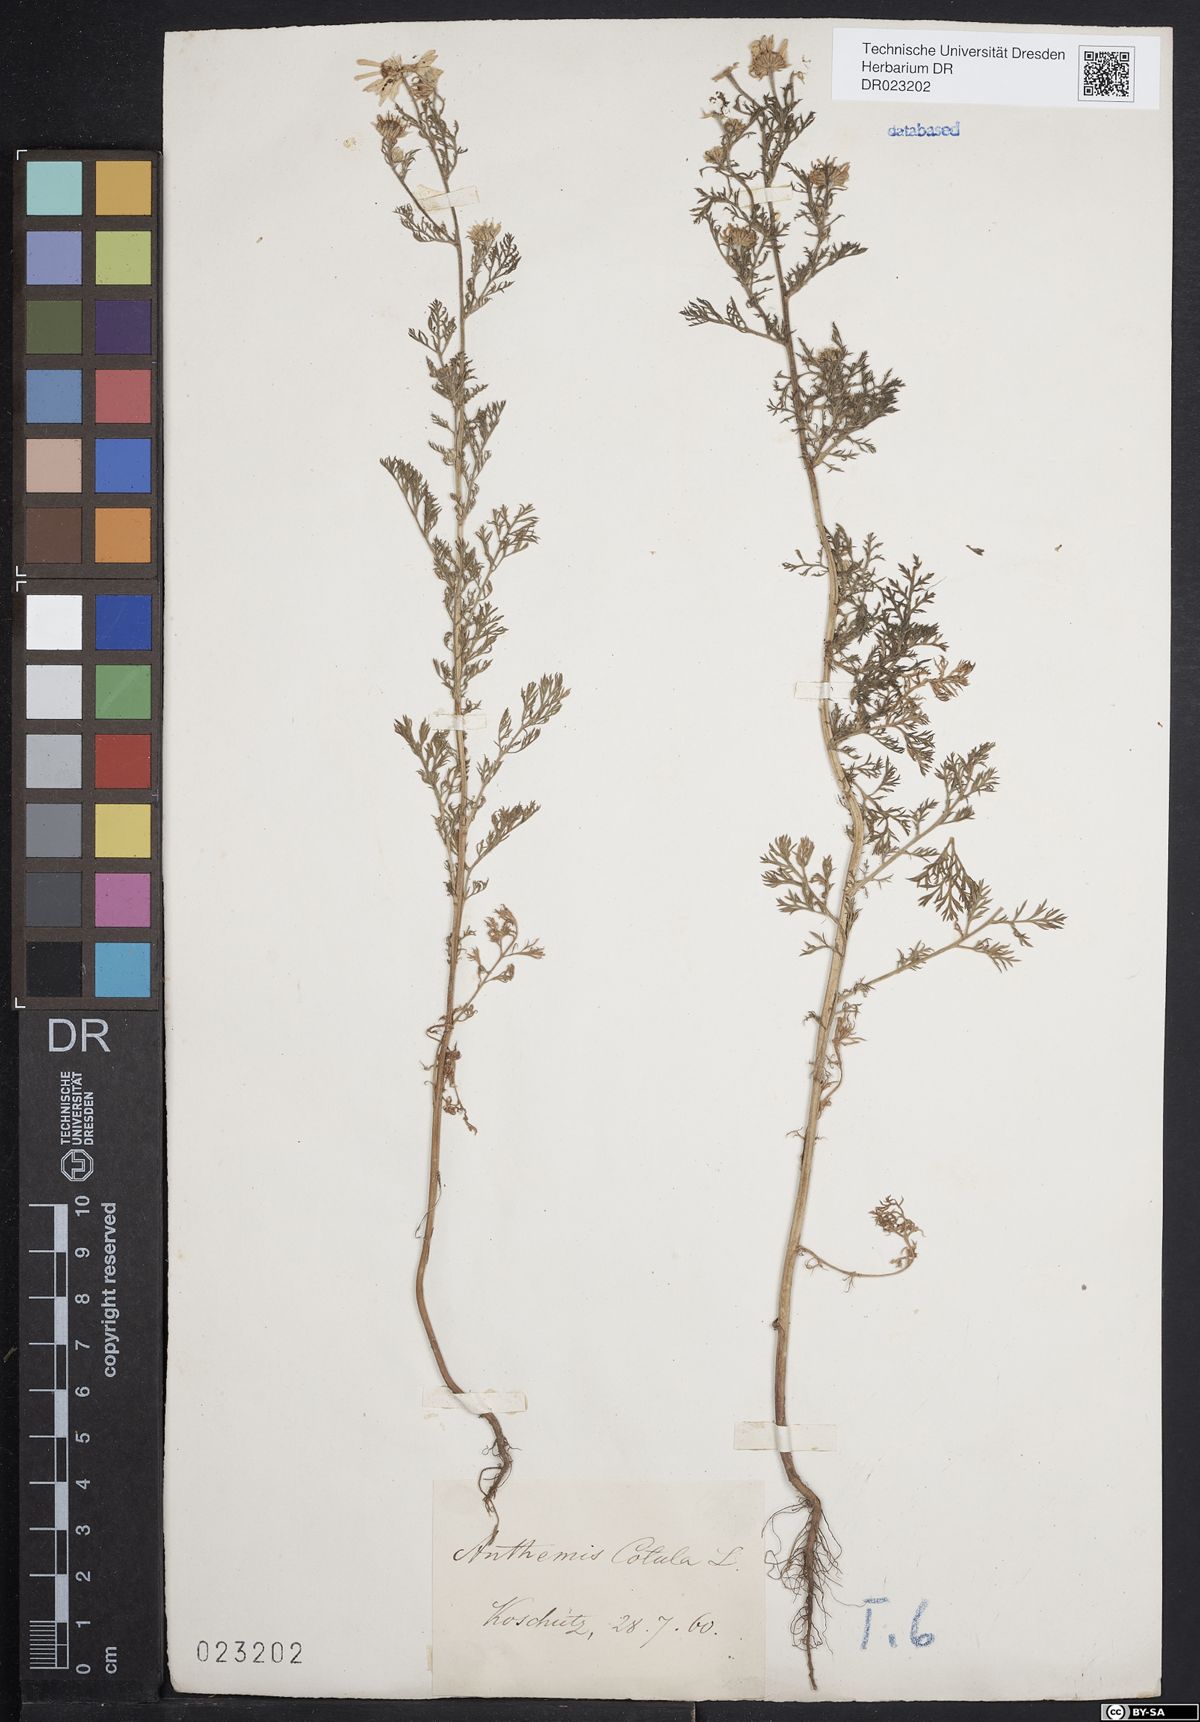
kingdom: Plantae
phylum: Tracheophyta
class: Magnoliopsida
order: Asterales
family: Asteraceae
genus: Anthemis
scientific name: Anthemis cotula
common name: Stinking chamomile
